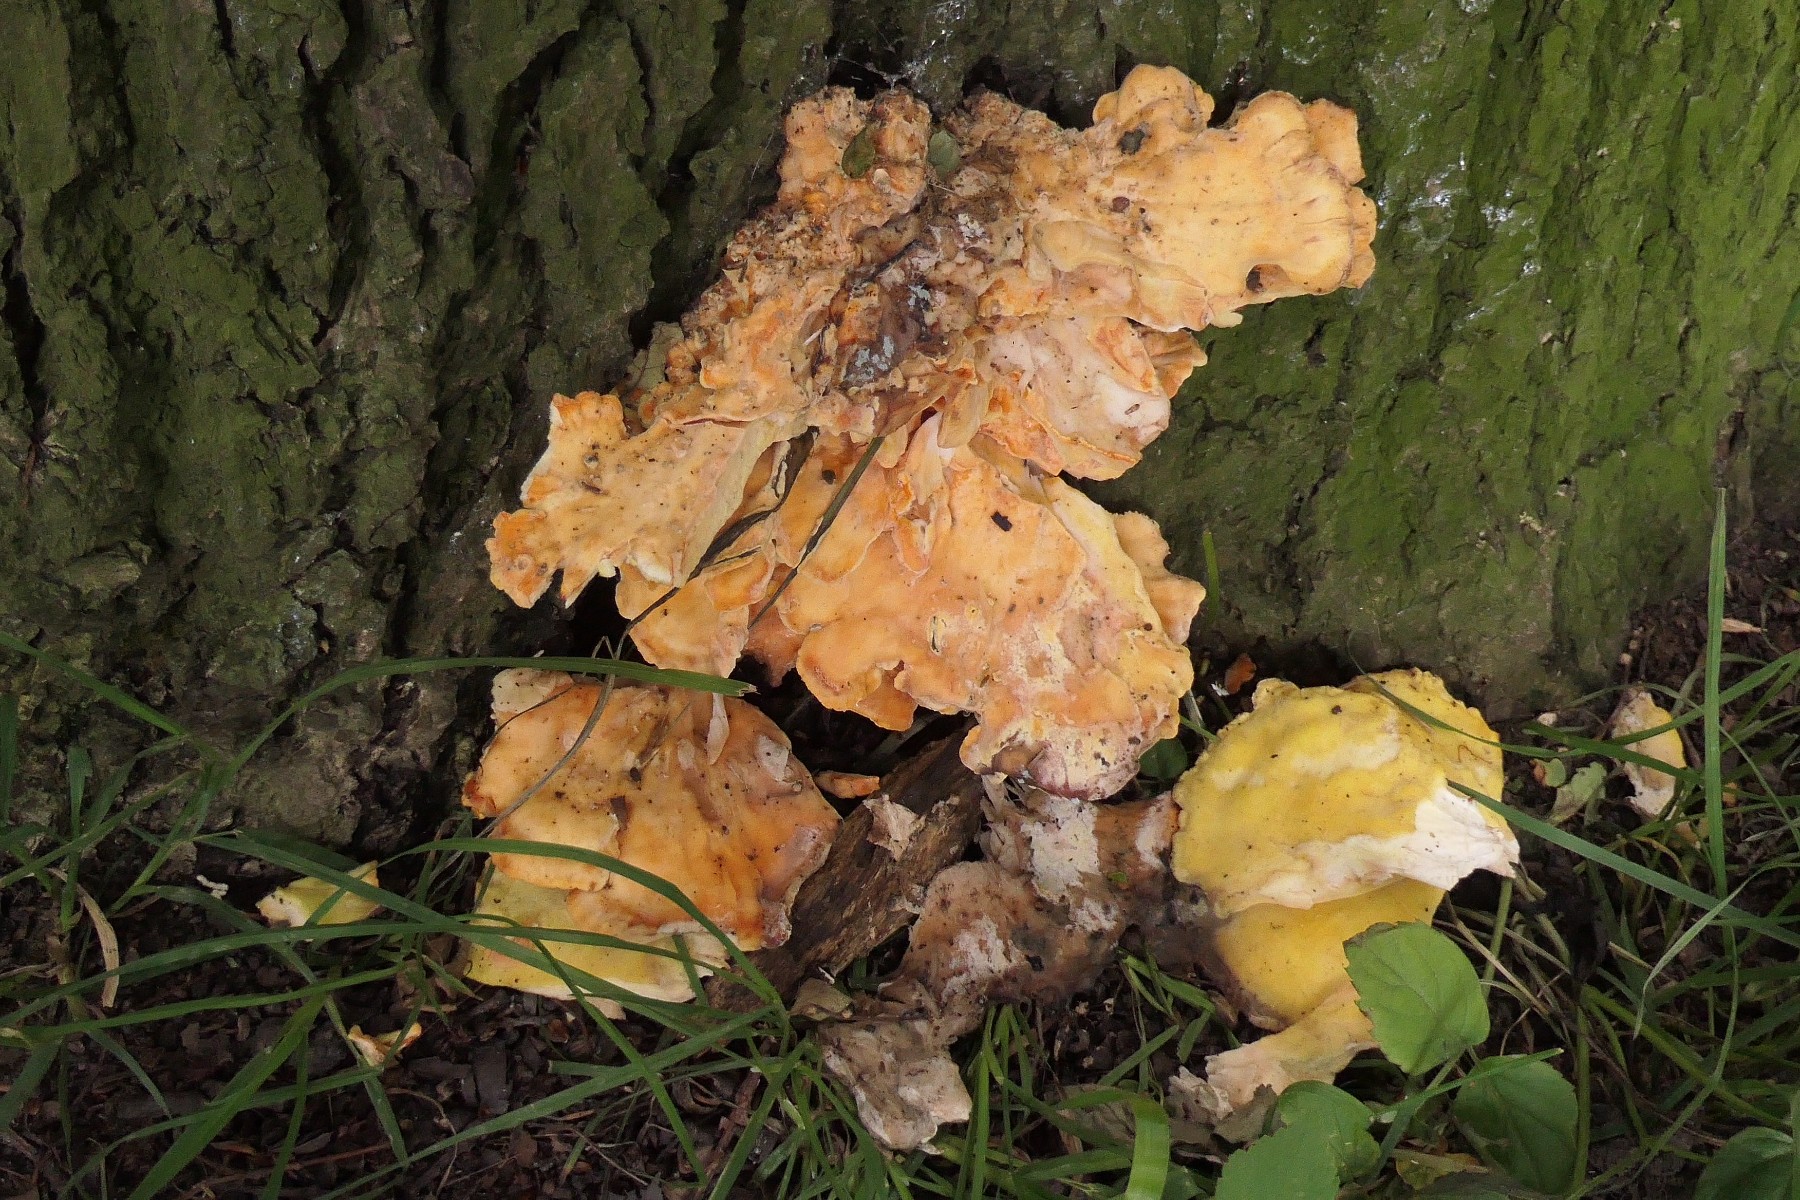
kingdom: Fungi
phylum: Basidiomycota
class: Agaricomycetes
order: Polyporales
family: Laetiporaceae
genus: Laetiporus
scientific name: Laetiporus sulphureus
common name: svovlporesvamp
